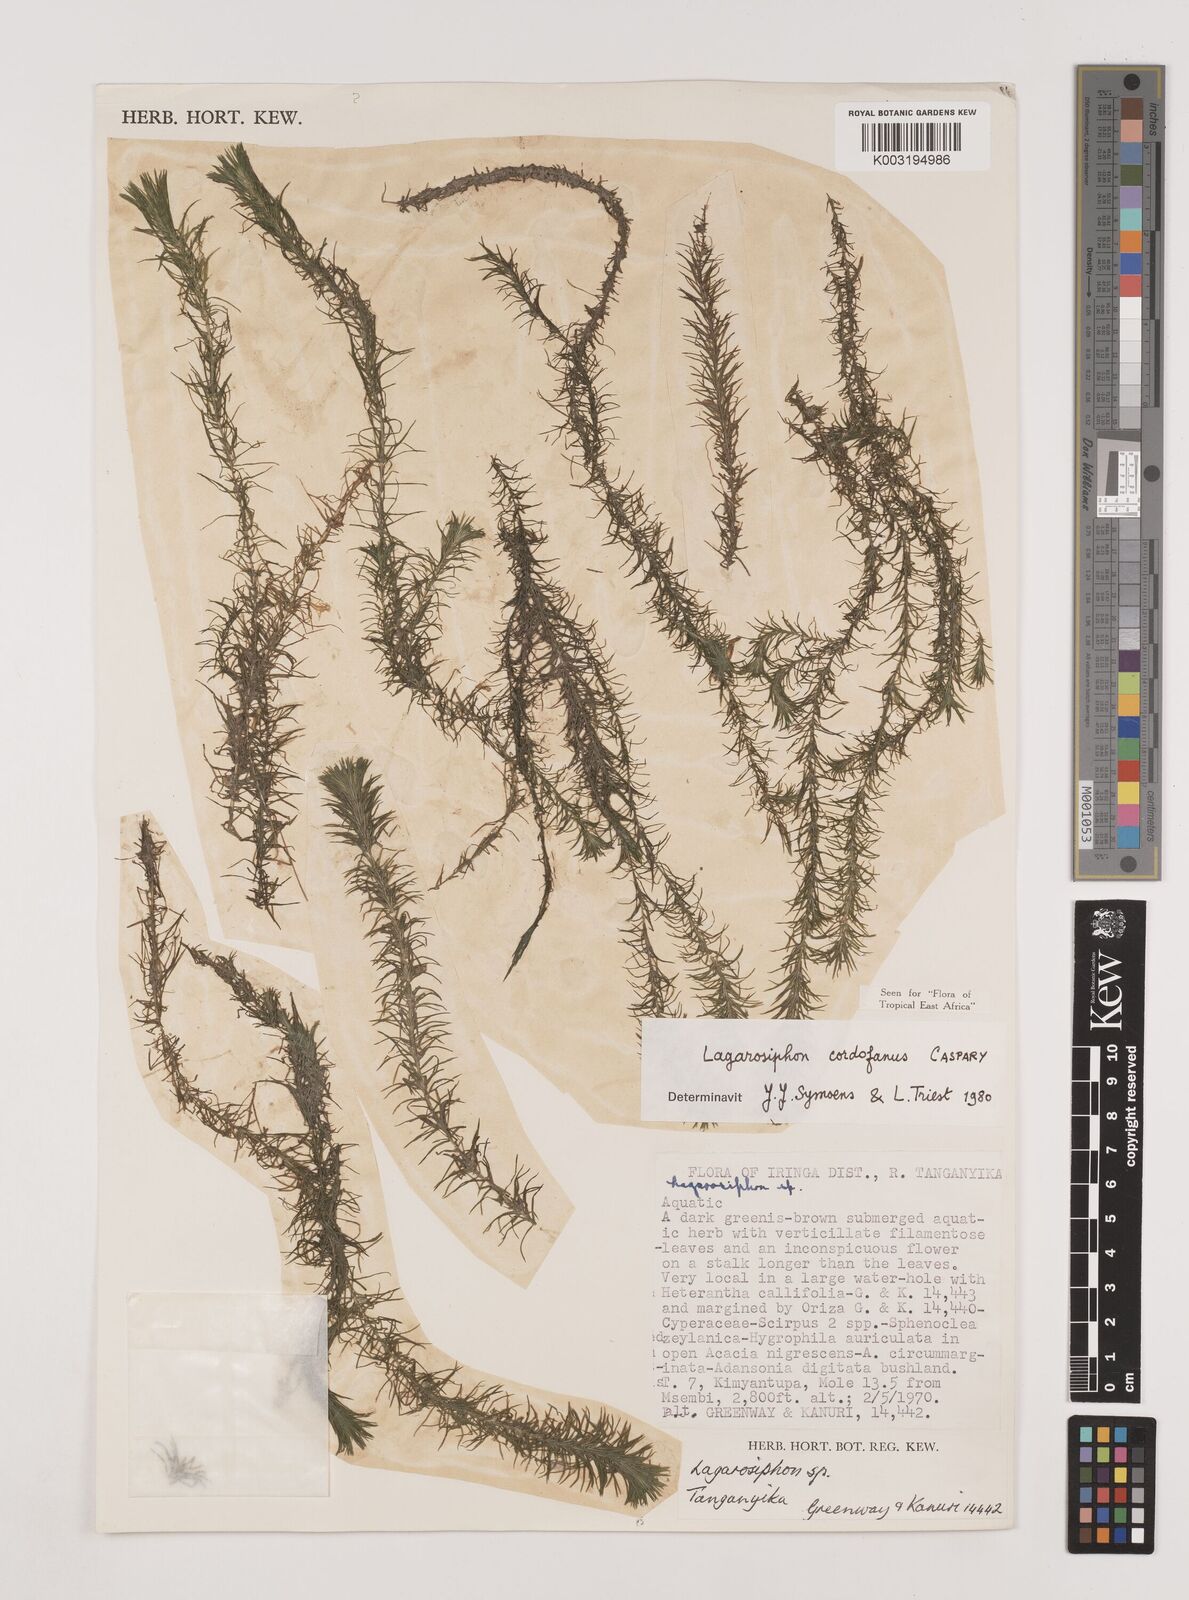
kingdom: Plantae
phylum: Tracheophyta
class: Liliopsida
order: Alismatales
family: Hydrocharitaceae
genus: Lagarosiphon
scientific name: Lagarosiphon cordofanus
